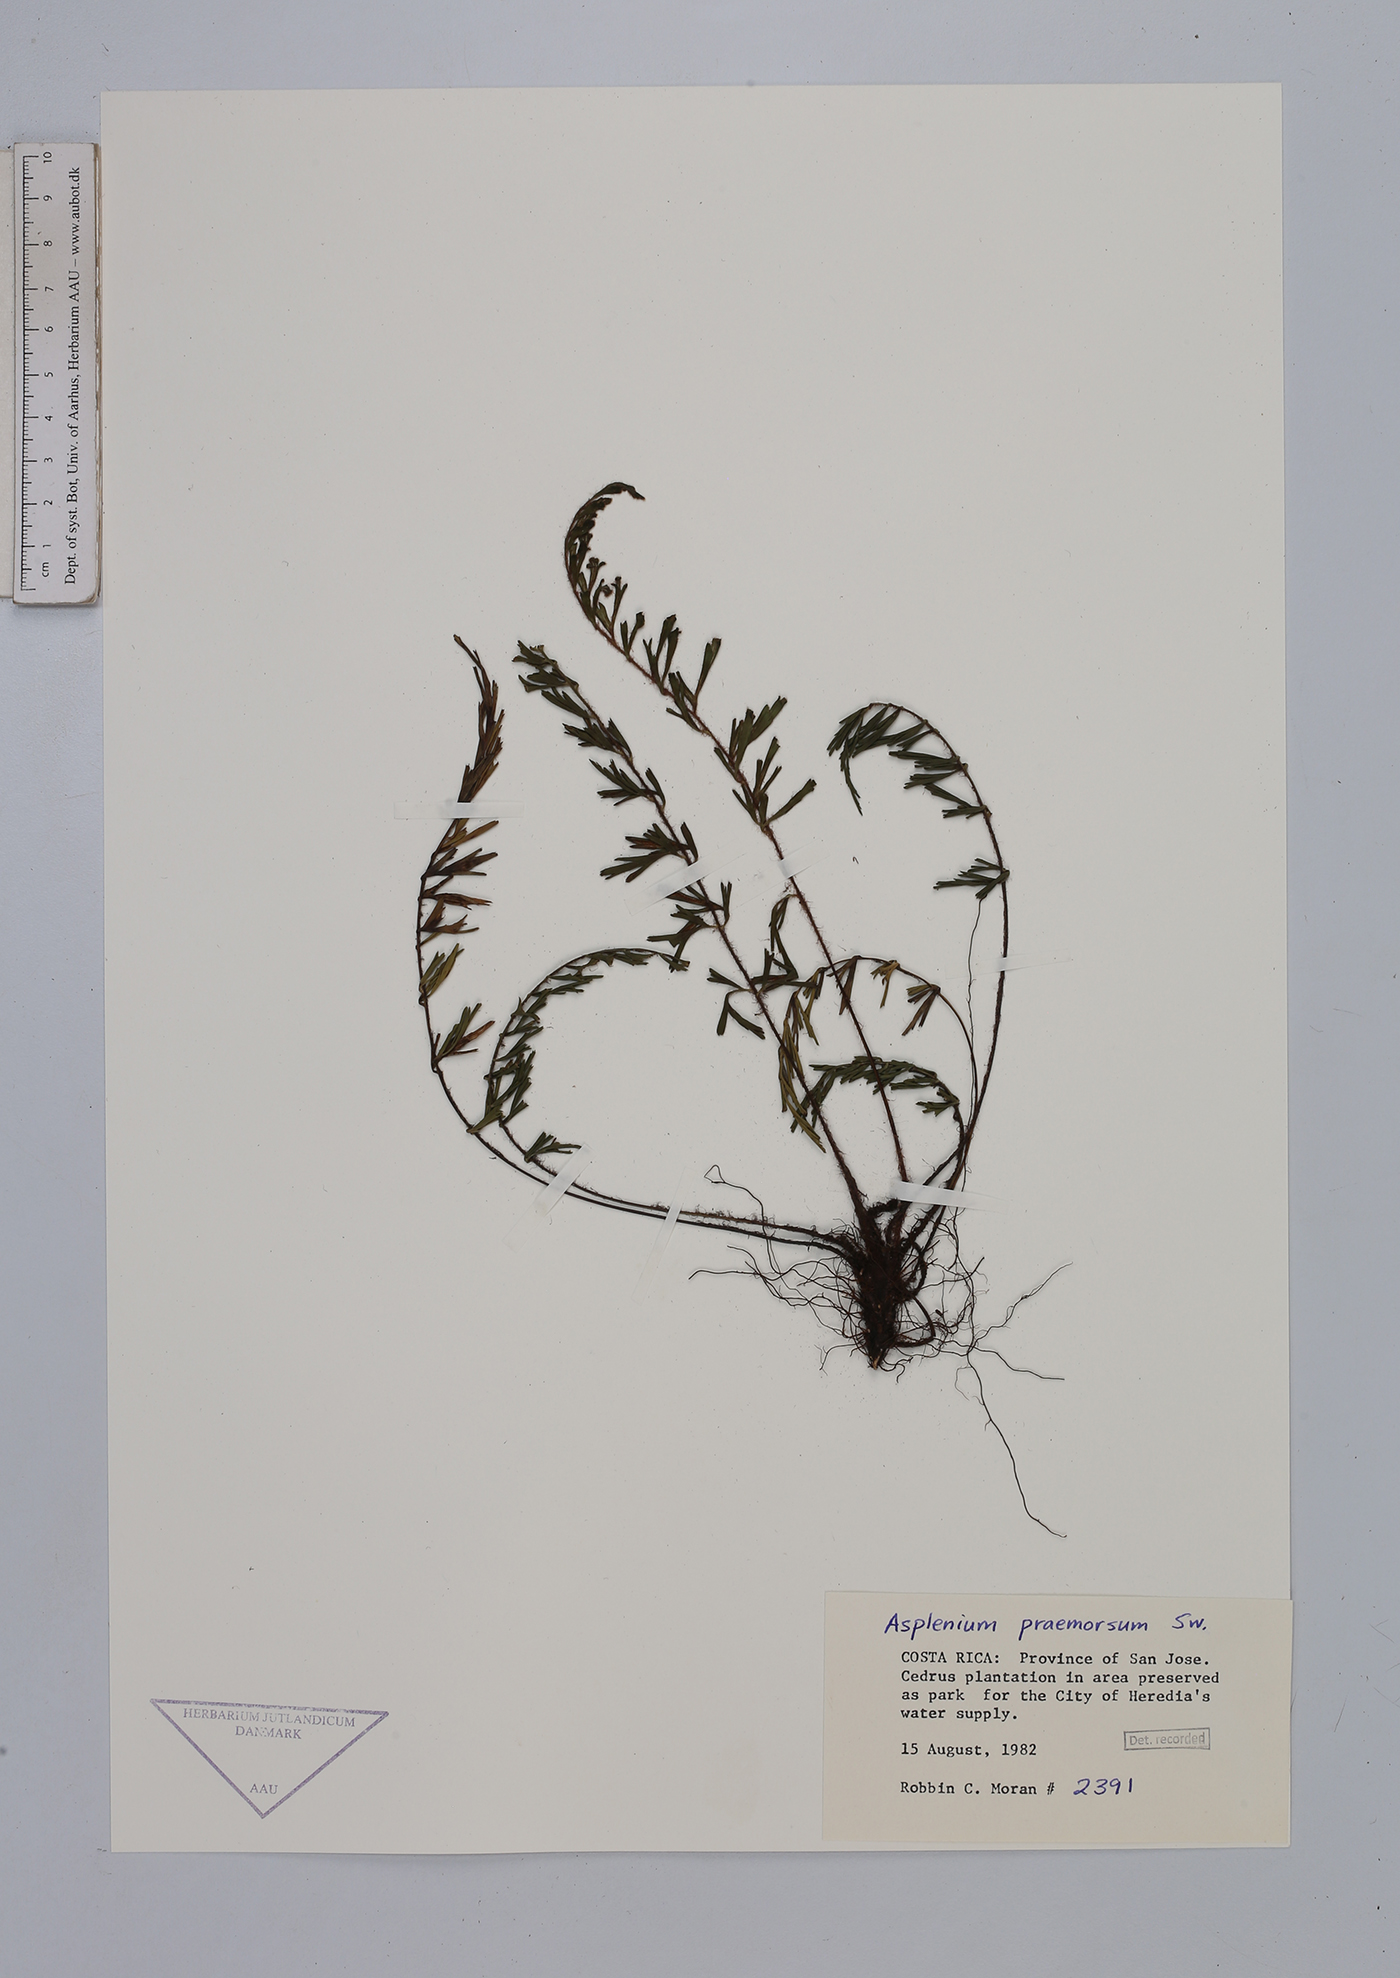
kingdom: Plantae
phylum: Tracheophyta
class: Polypodiopsida
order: Polypodiales
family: Aspleniaceae
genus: Asplenium
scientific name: Asplenium praemorsum
